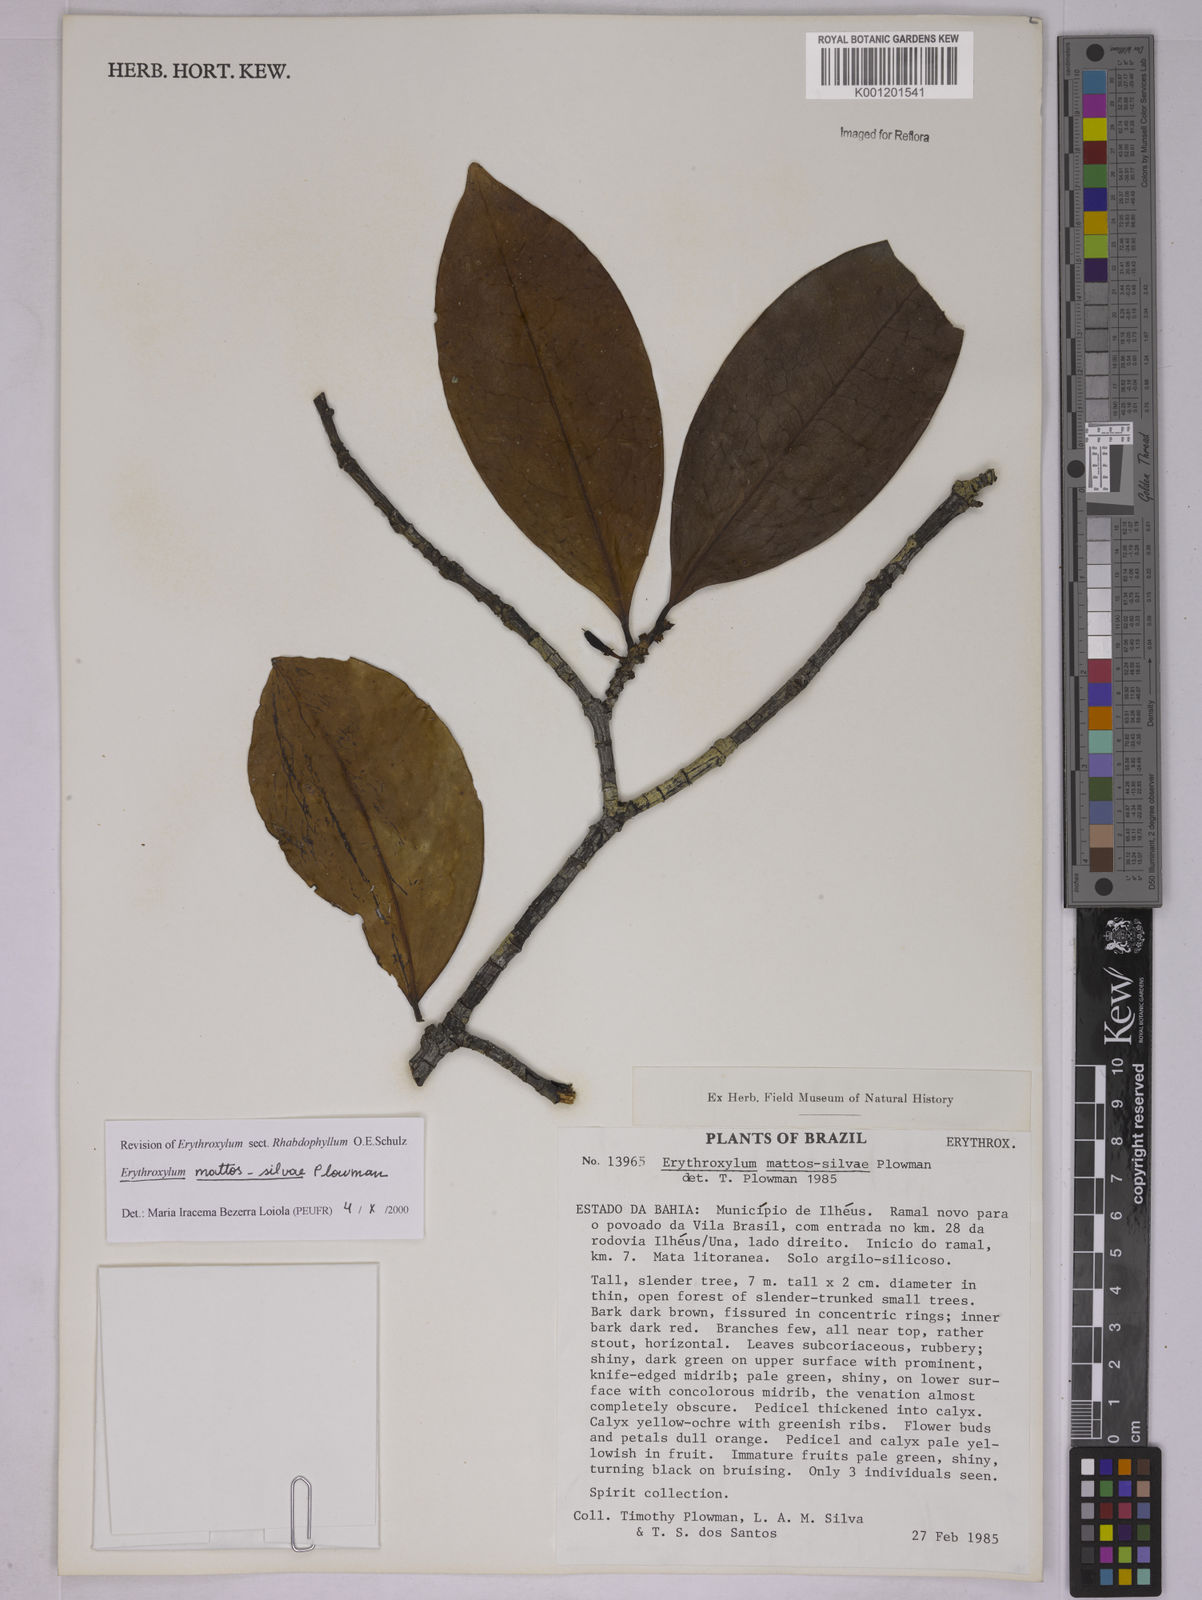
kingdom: Plantae
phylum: Tracheophyta
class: Magnoliopsida
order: Malpighiales
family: Erythroxylaceae
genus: Erythroxylum
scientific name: Erythroxylum mattos-silvae
